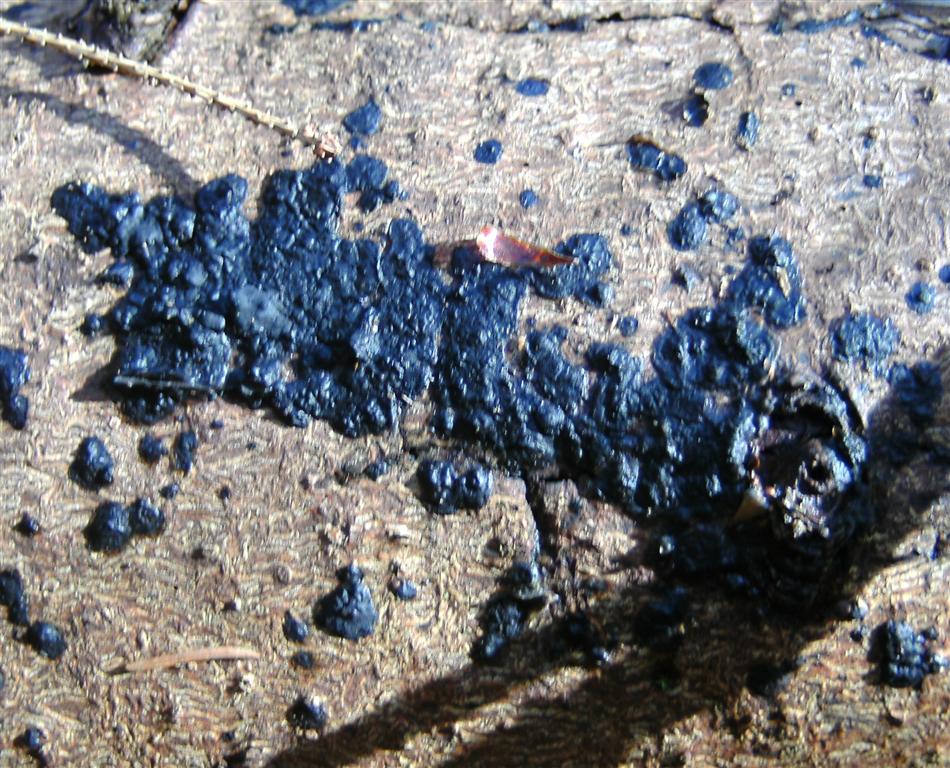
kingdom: Fungi
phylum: Basidiomycota
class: Agaricomycetes
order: Auriculariales
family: Auriculariaceae
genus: Exidia
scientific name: Exidia pithya
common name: gran-bævretop
